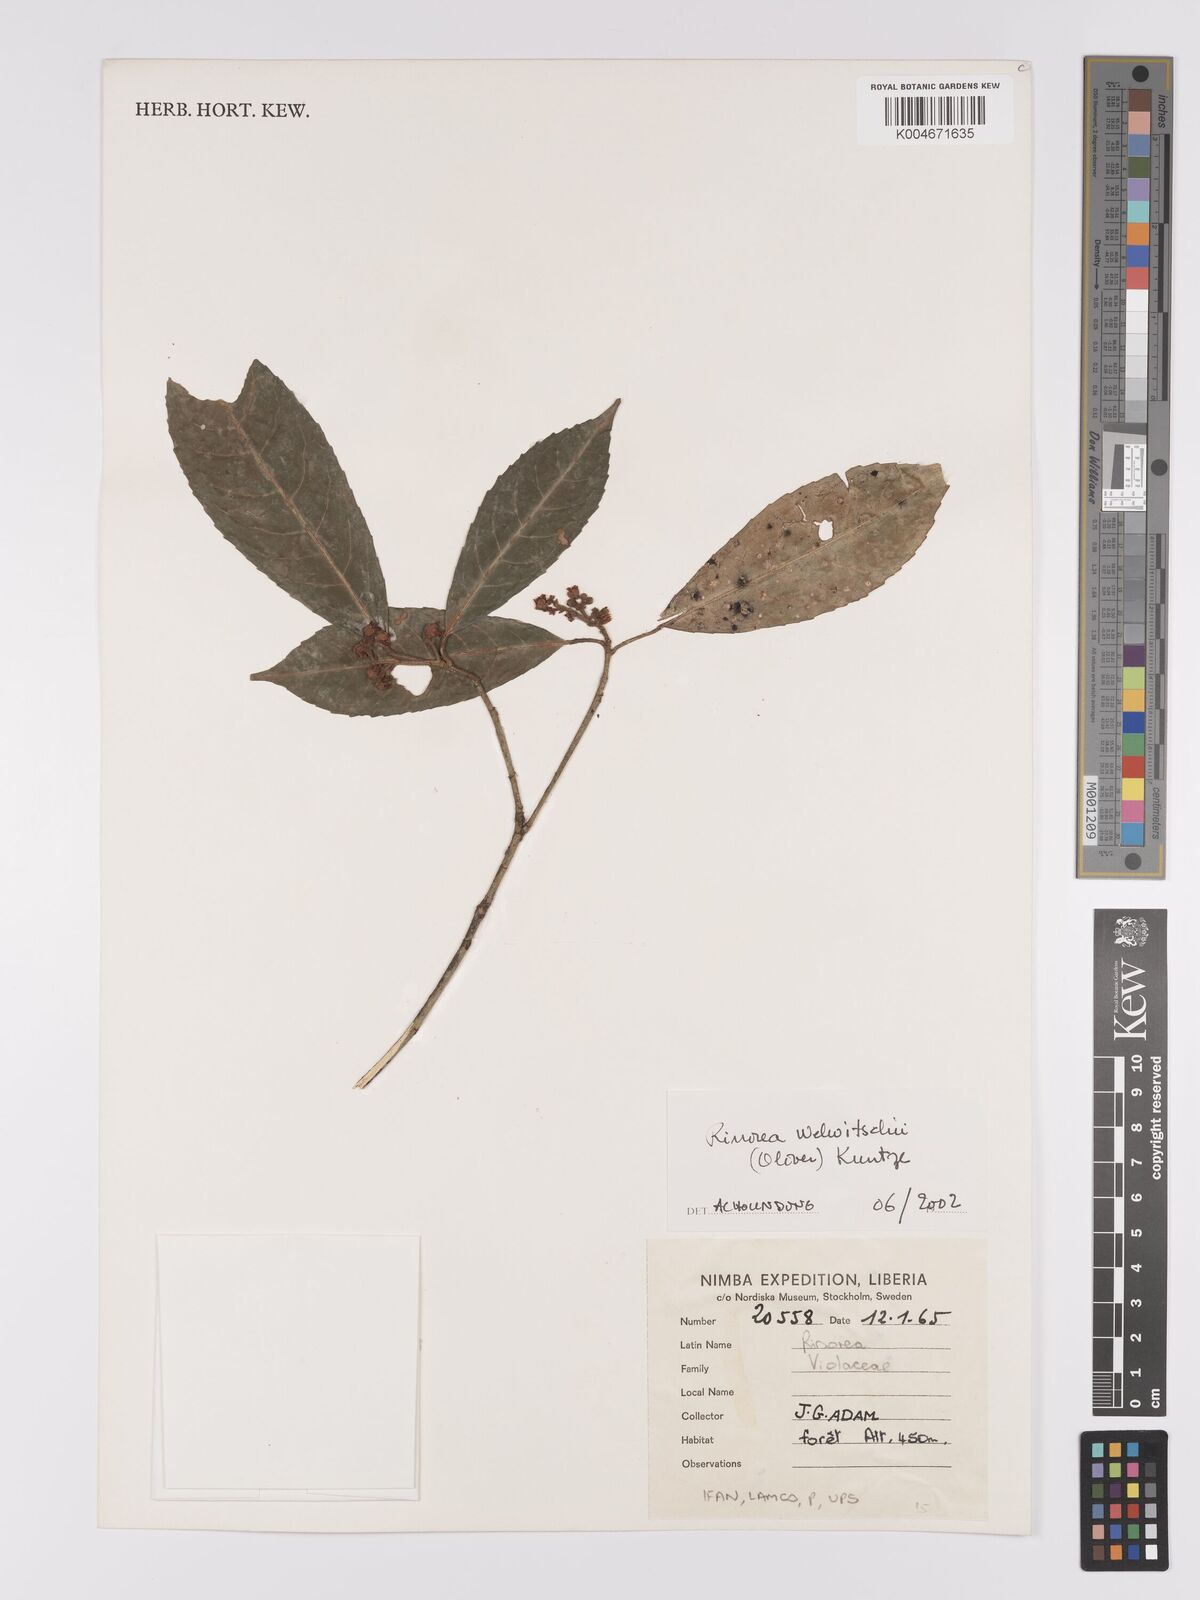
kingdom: Plantae
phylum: Tracheophyta
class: Magnoliopsida
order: Malpighiales
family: Violaceae
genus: Rinorea
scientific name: Rinorea welwitschii
